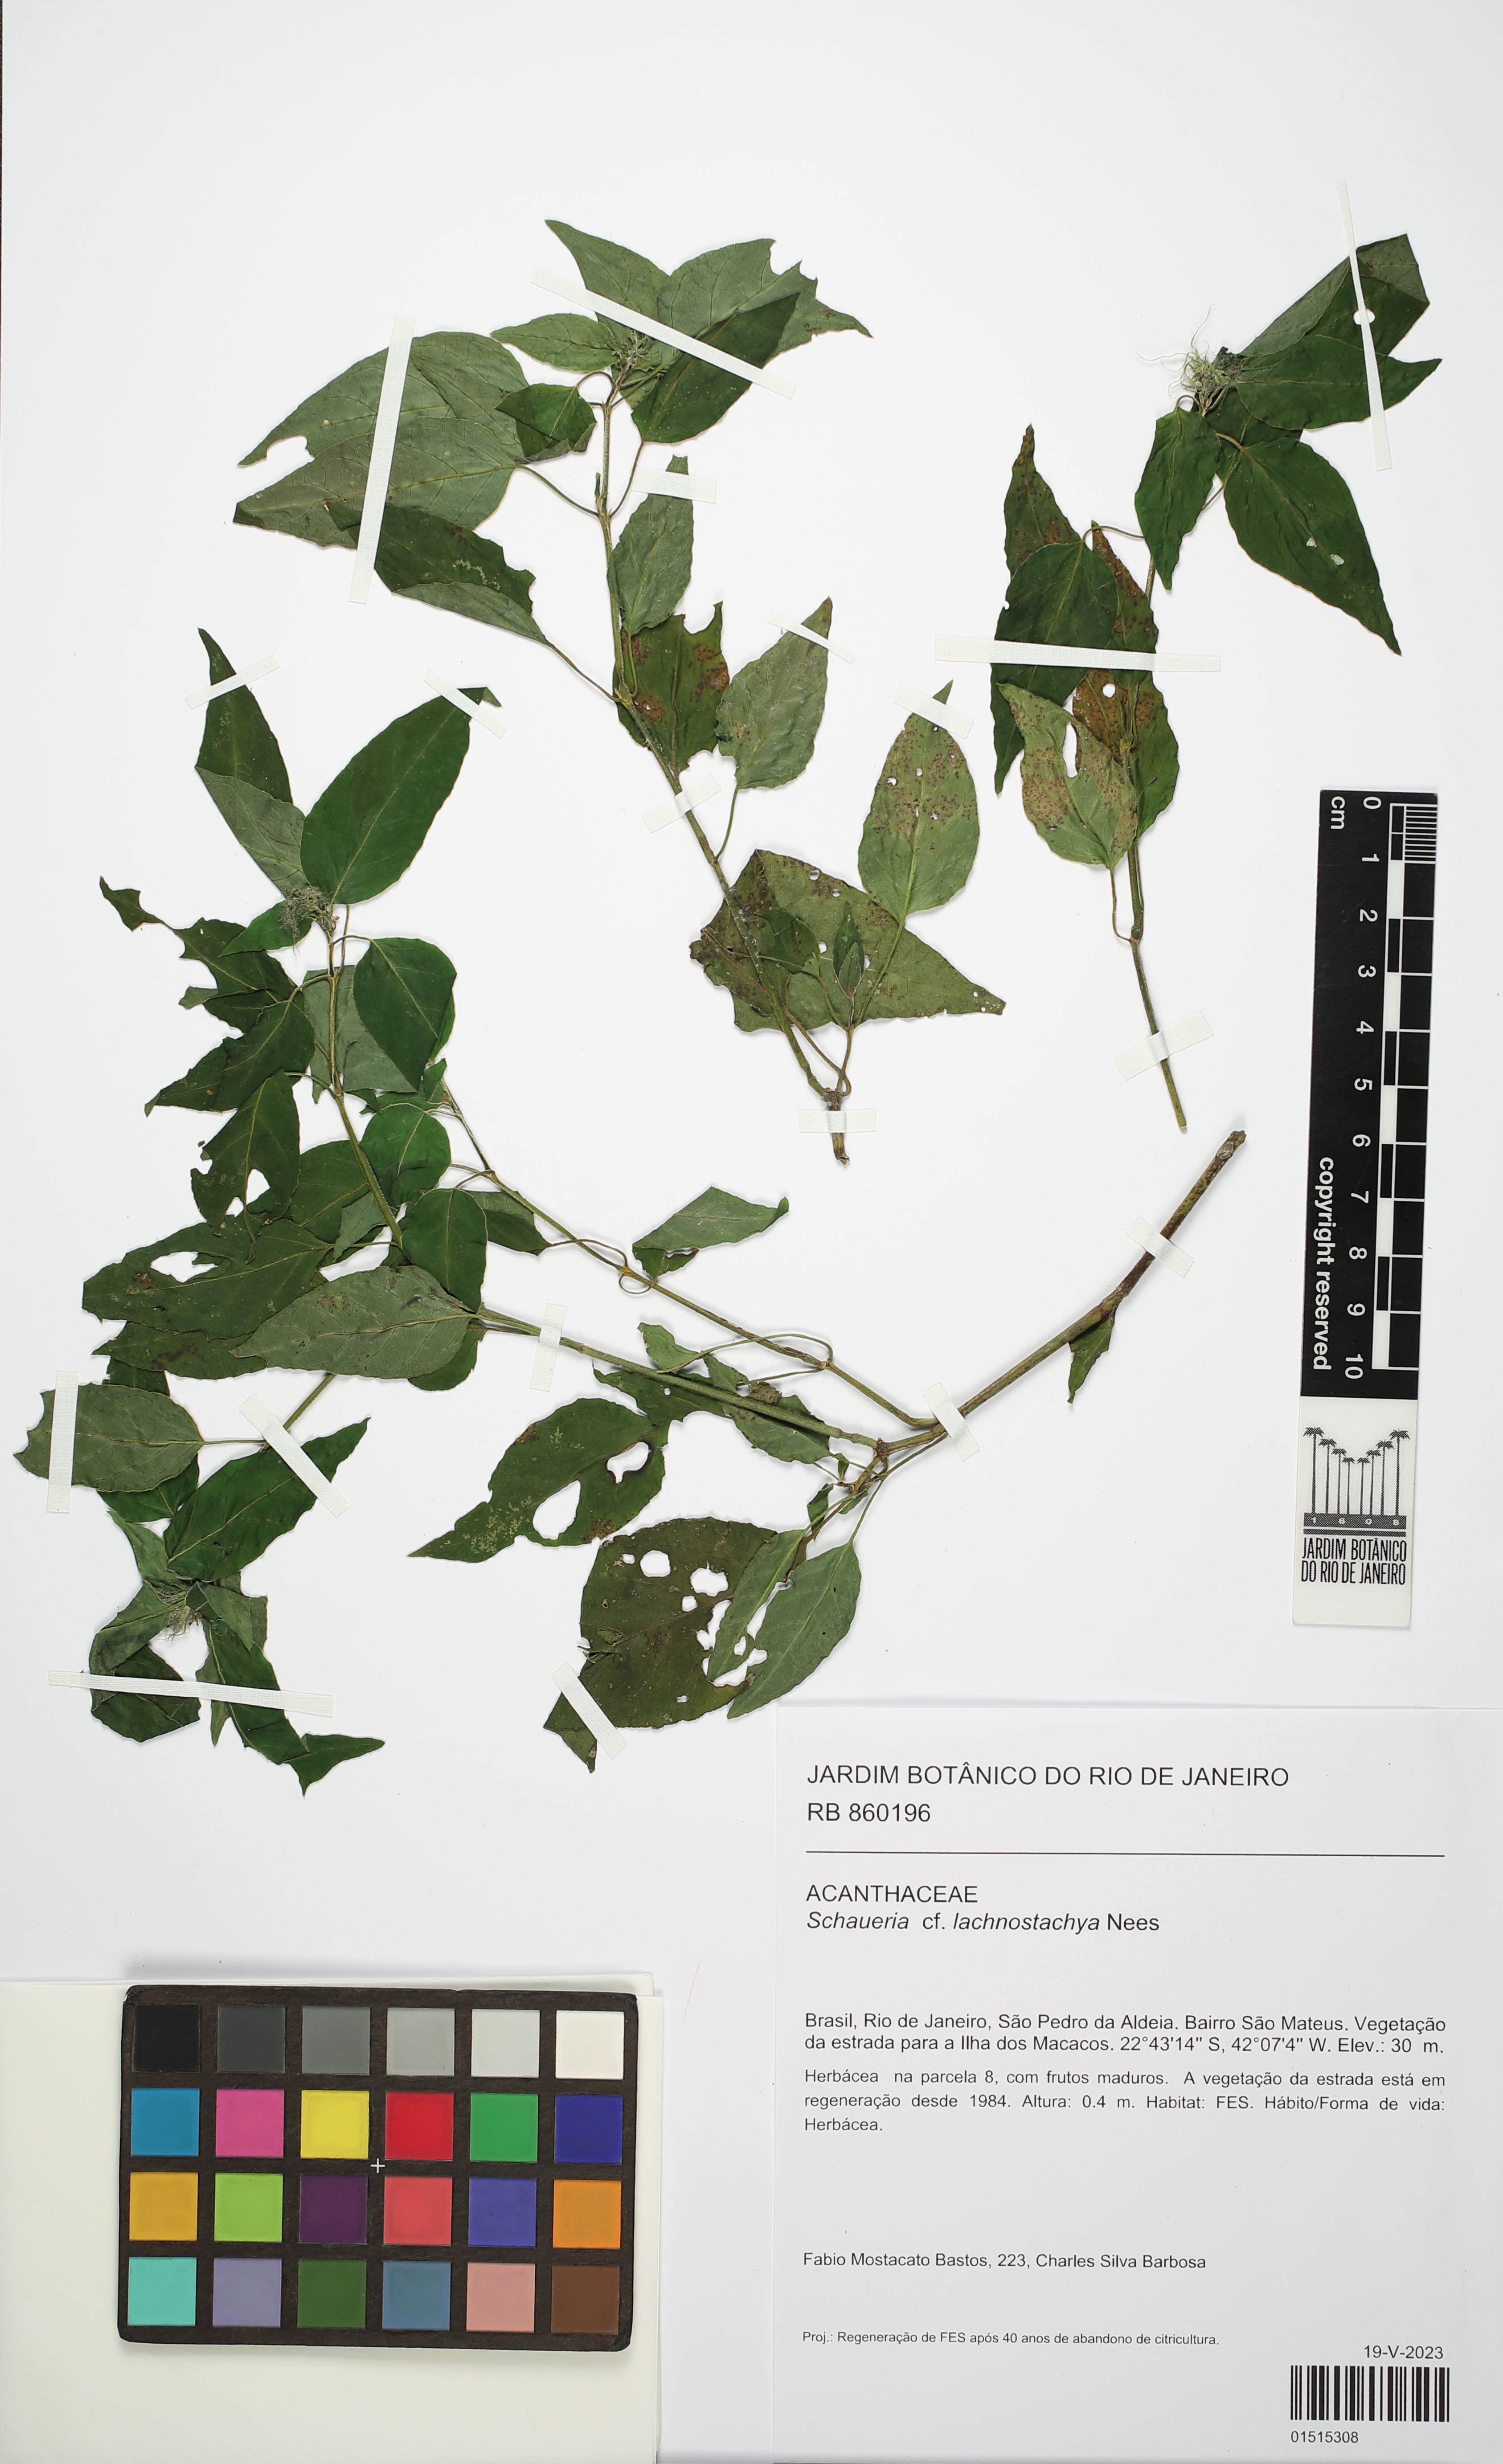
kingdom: Plantae
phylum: Tracheophyta
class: Magnoliopsida
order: Lamiales
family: Acanthaceae
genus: Schaueria
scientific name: Schaueria lachnostachya
